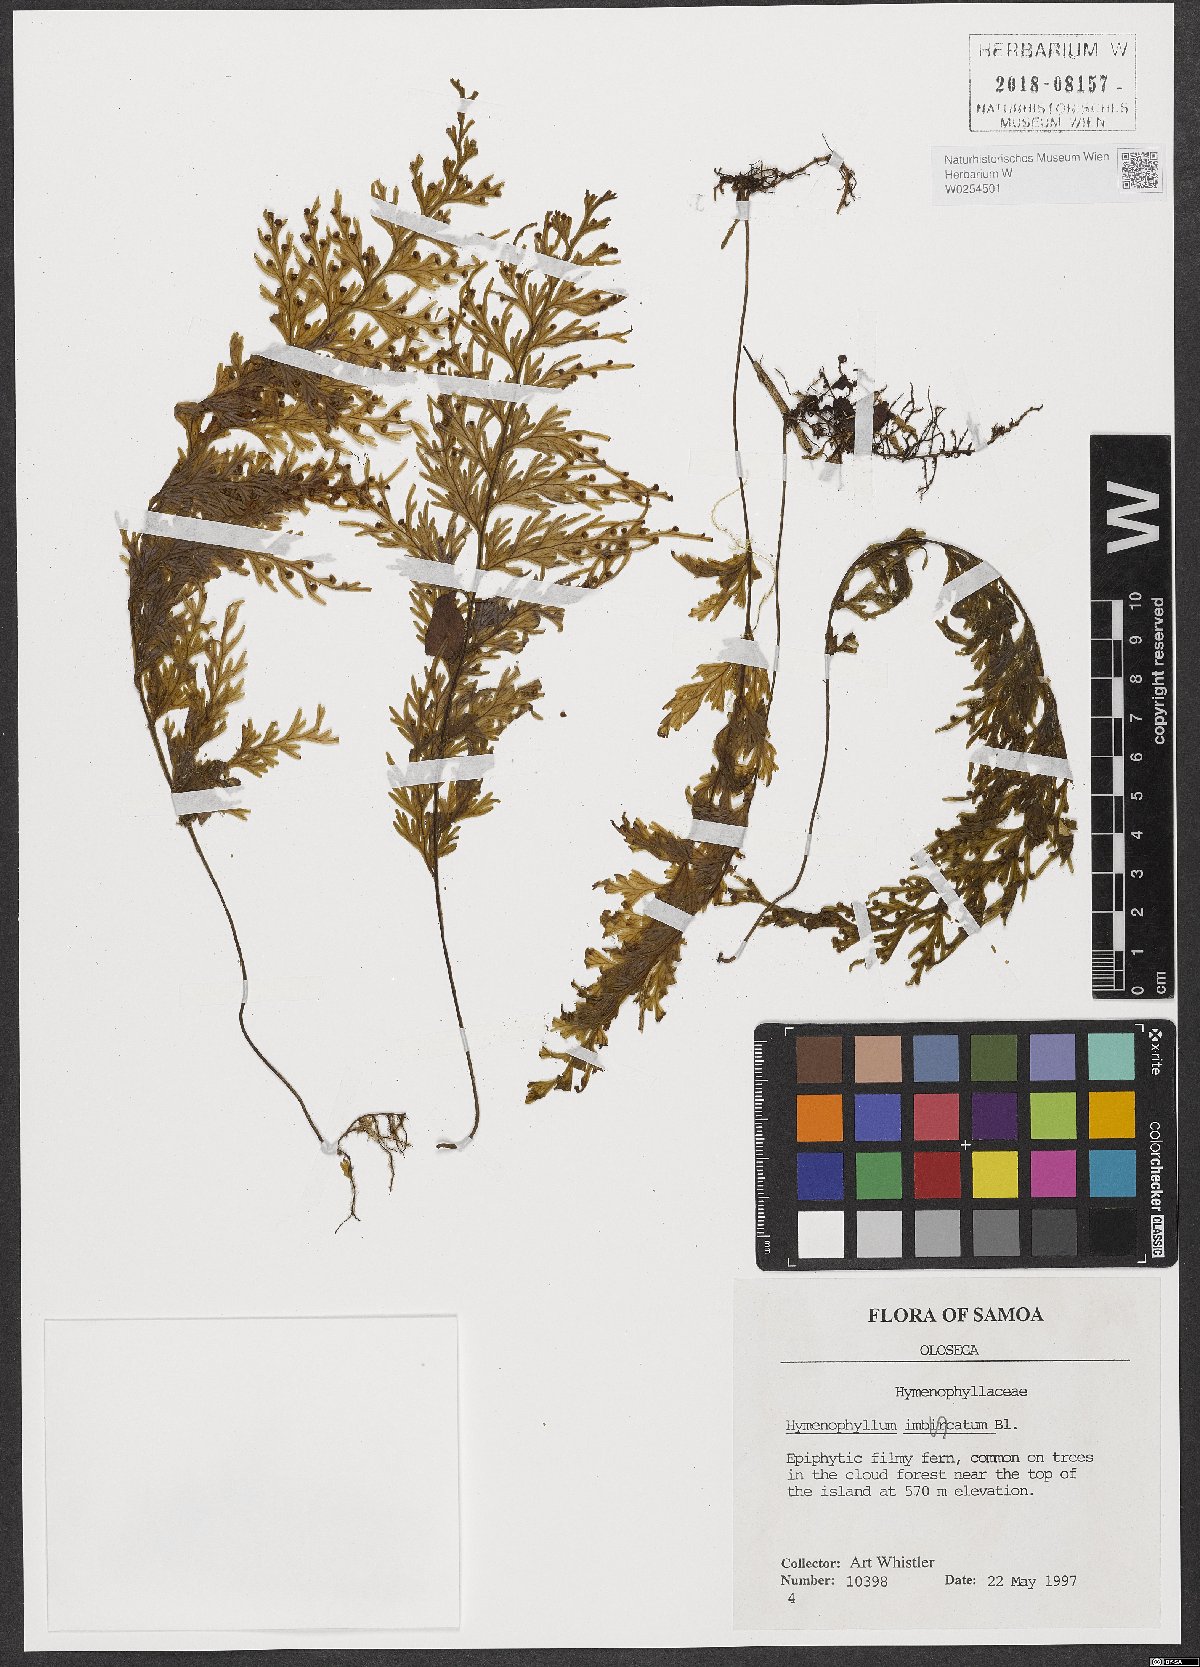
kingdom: Plantae
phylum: Tracheophyta
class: Polypodiopsida
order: Hymenophyllales
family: Hymenophyllaceae
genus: Hymenophyllum
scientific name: Hymenophyllum imbricatum
